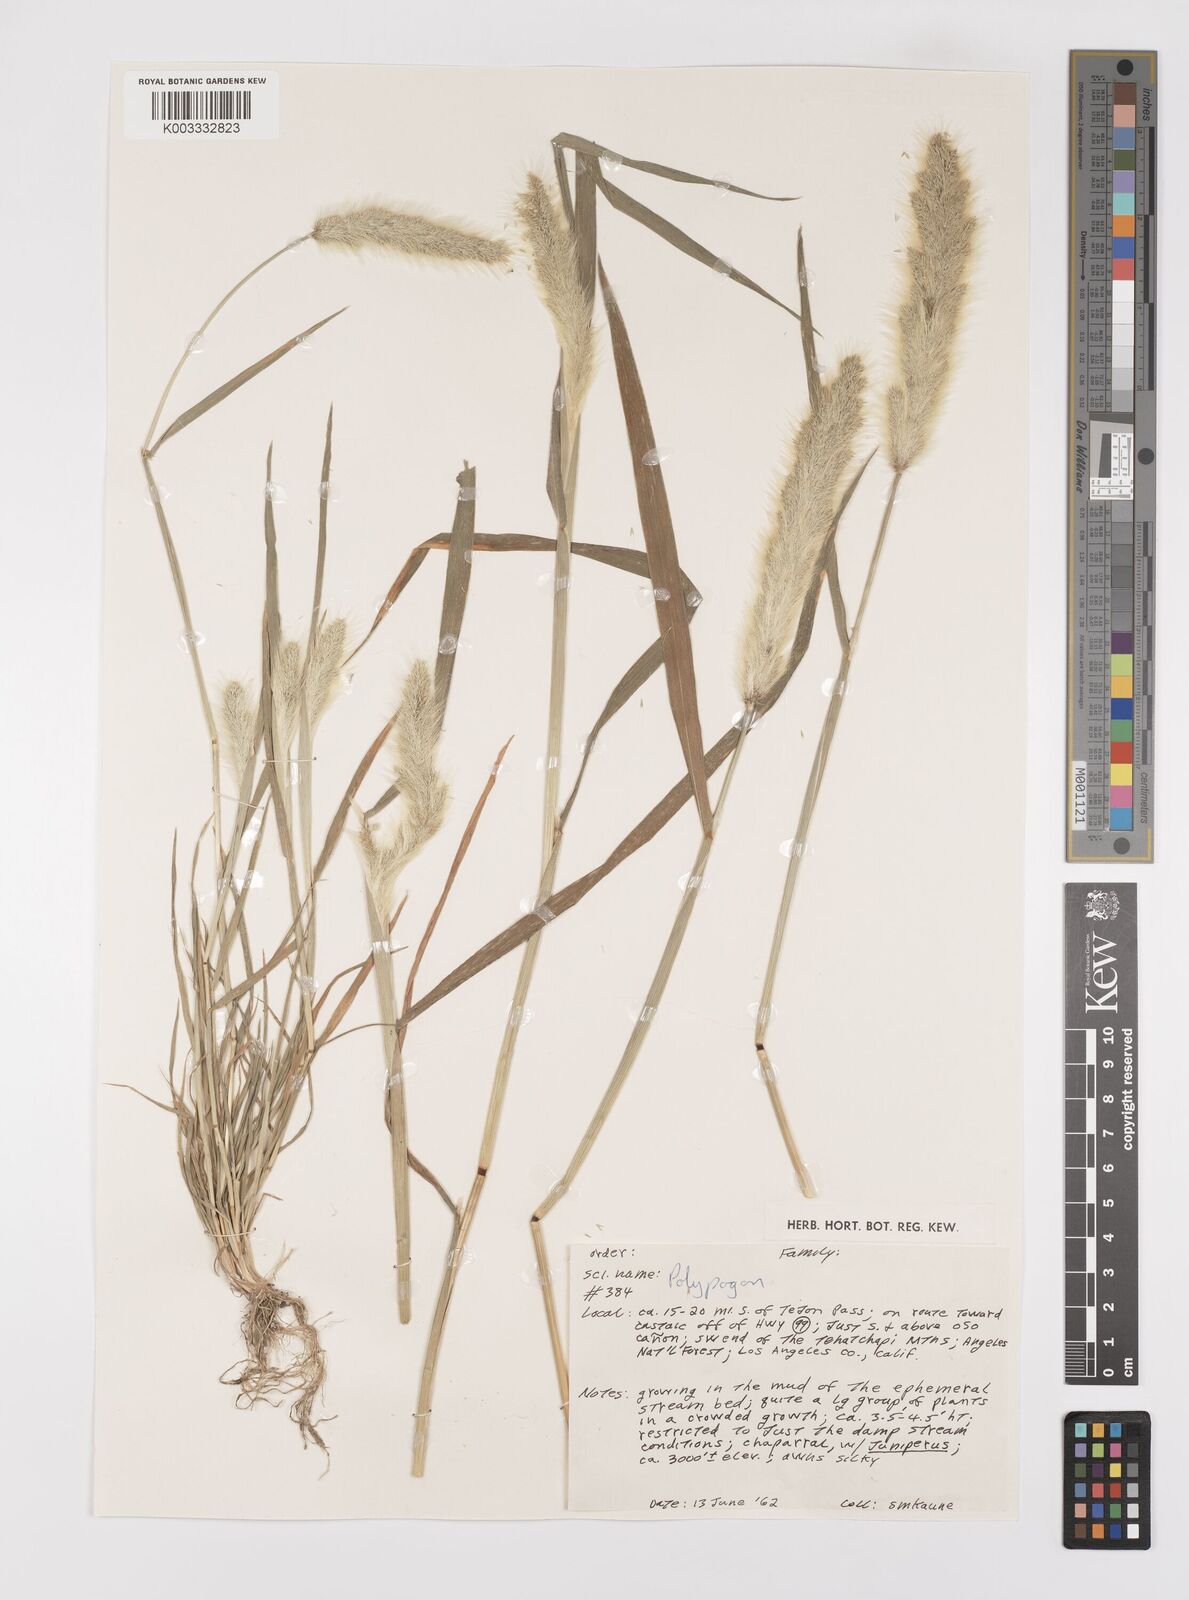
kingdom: Plantae
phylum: Tracheophyta
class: Liliopsida
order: Poales
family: Poaceae
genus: Polypogon
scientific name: Polypogon monspeliensis
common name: Annual rabbitsfoot grass
